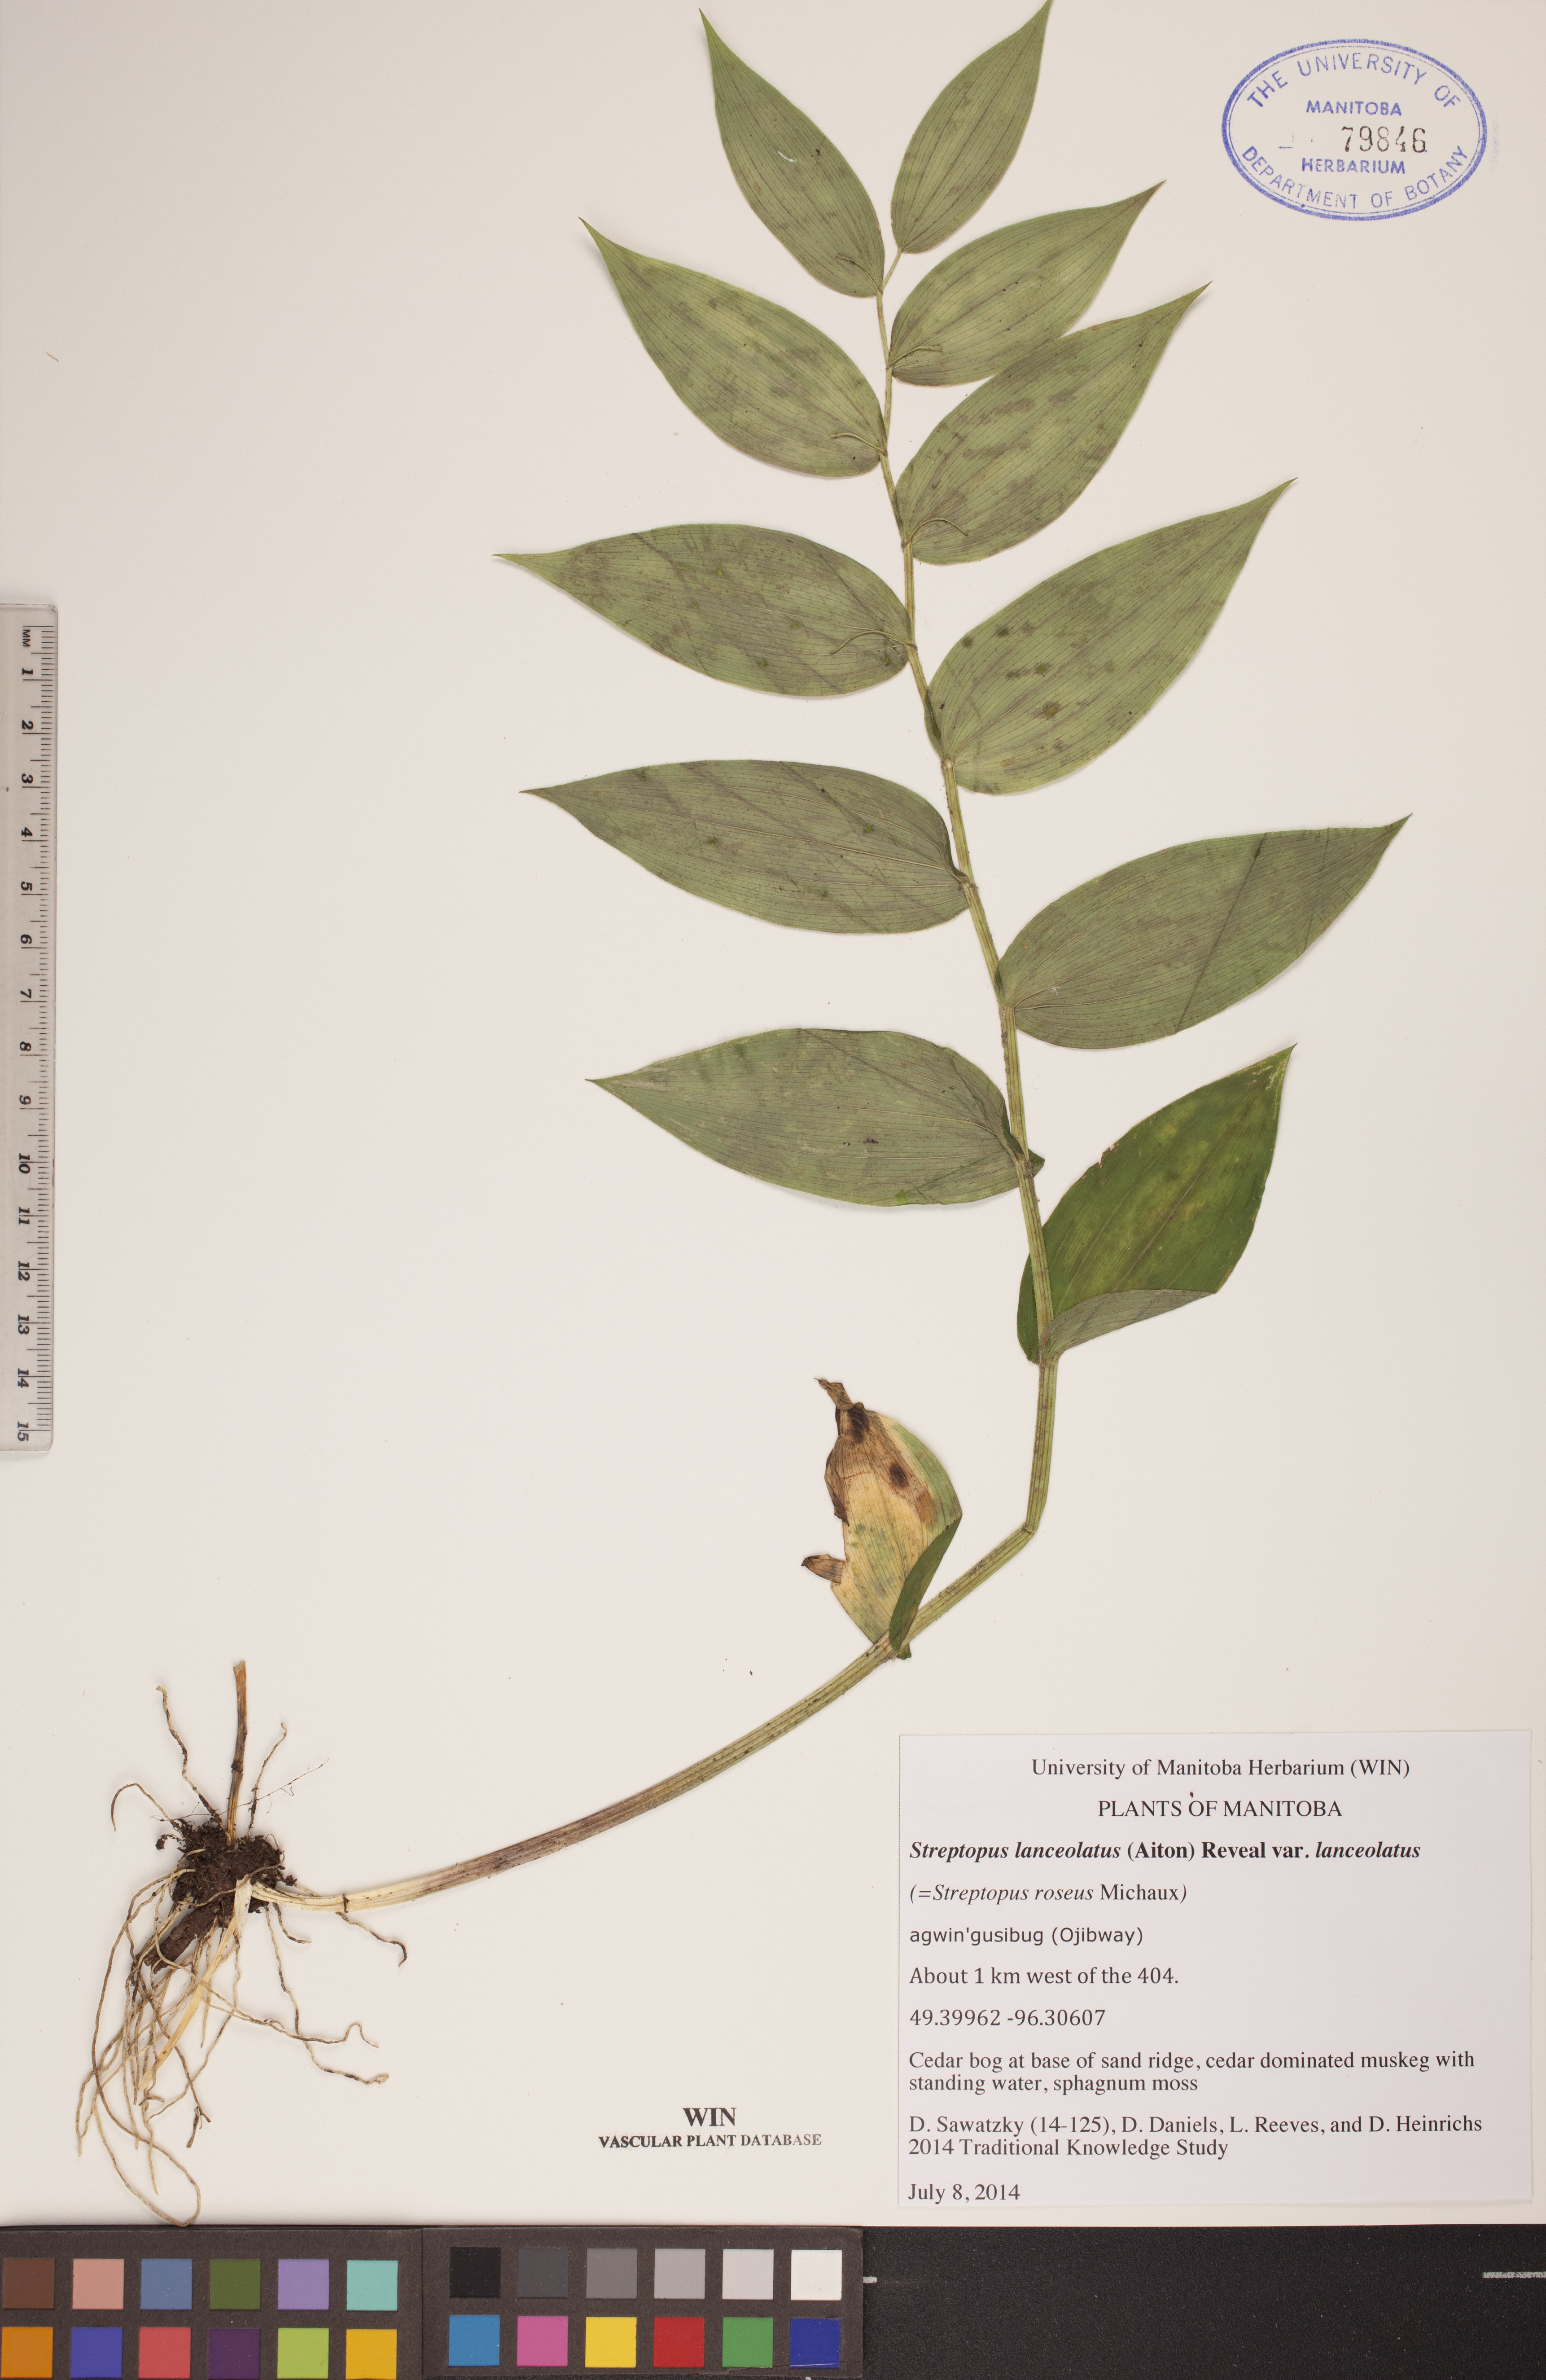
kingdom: Plantae
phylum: Tracheophyta
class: Liliopsida
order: Liliales
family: Liliaceae
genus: Streptopus
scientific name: Streptopus lanceolatus
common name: Rose mandarin
